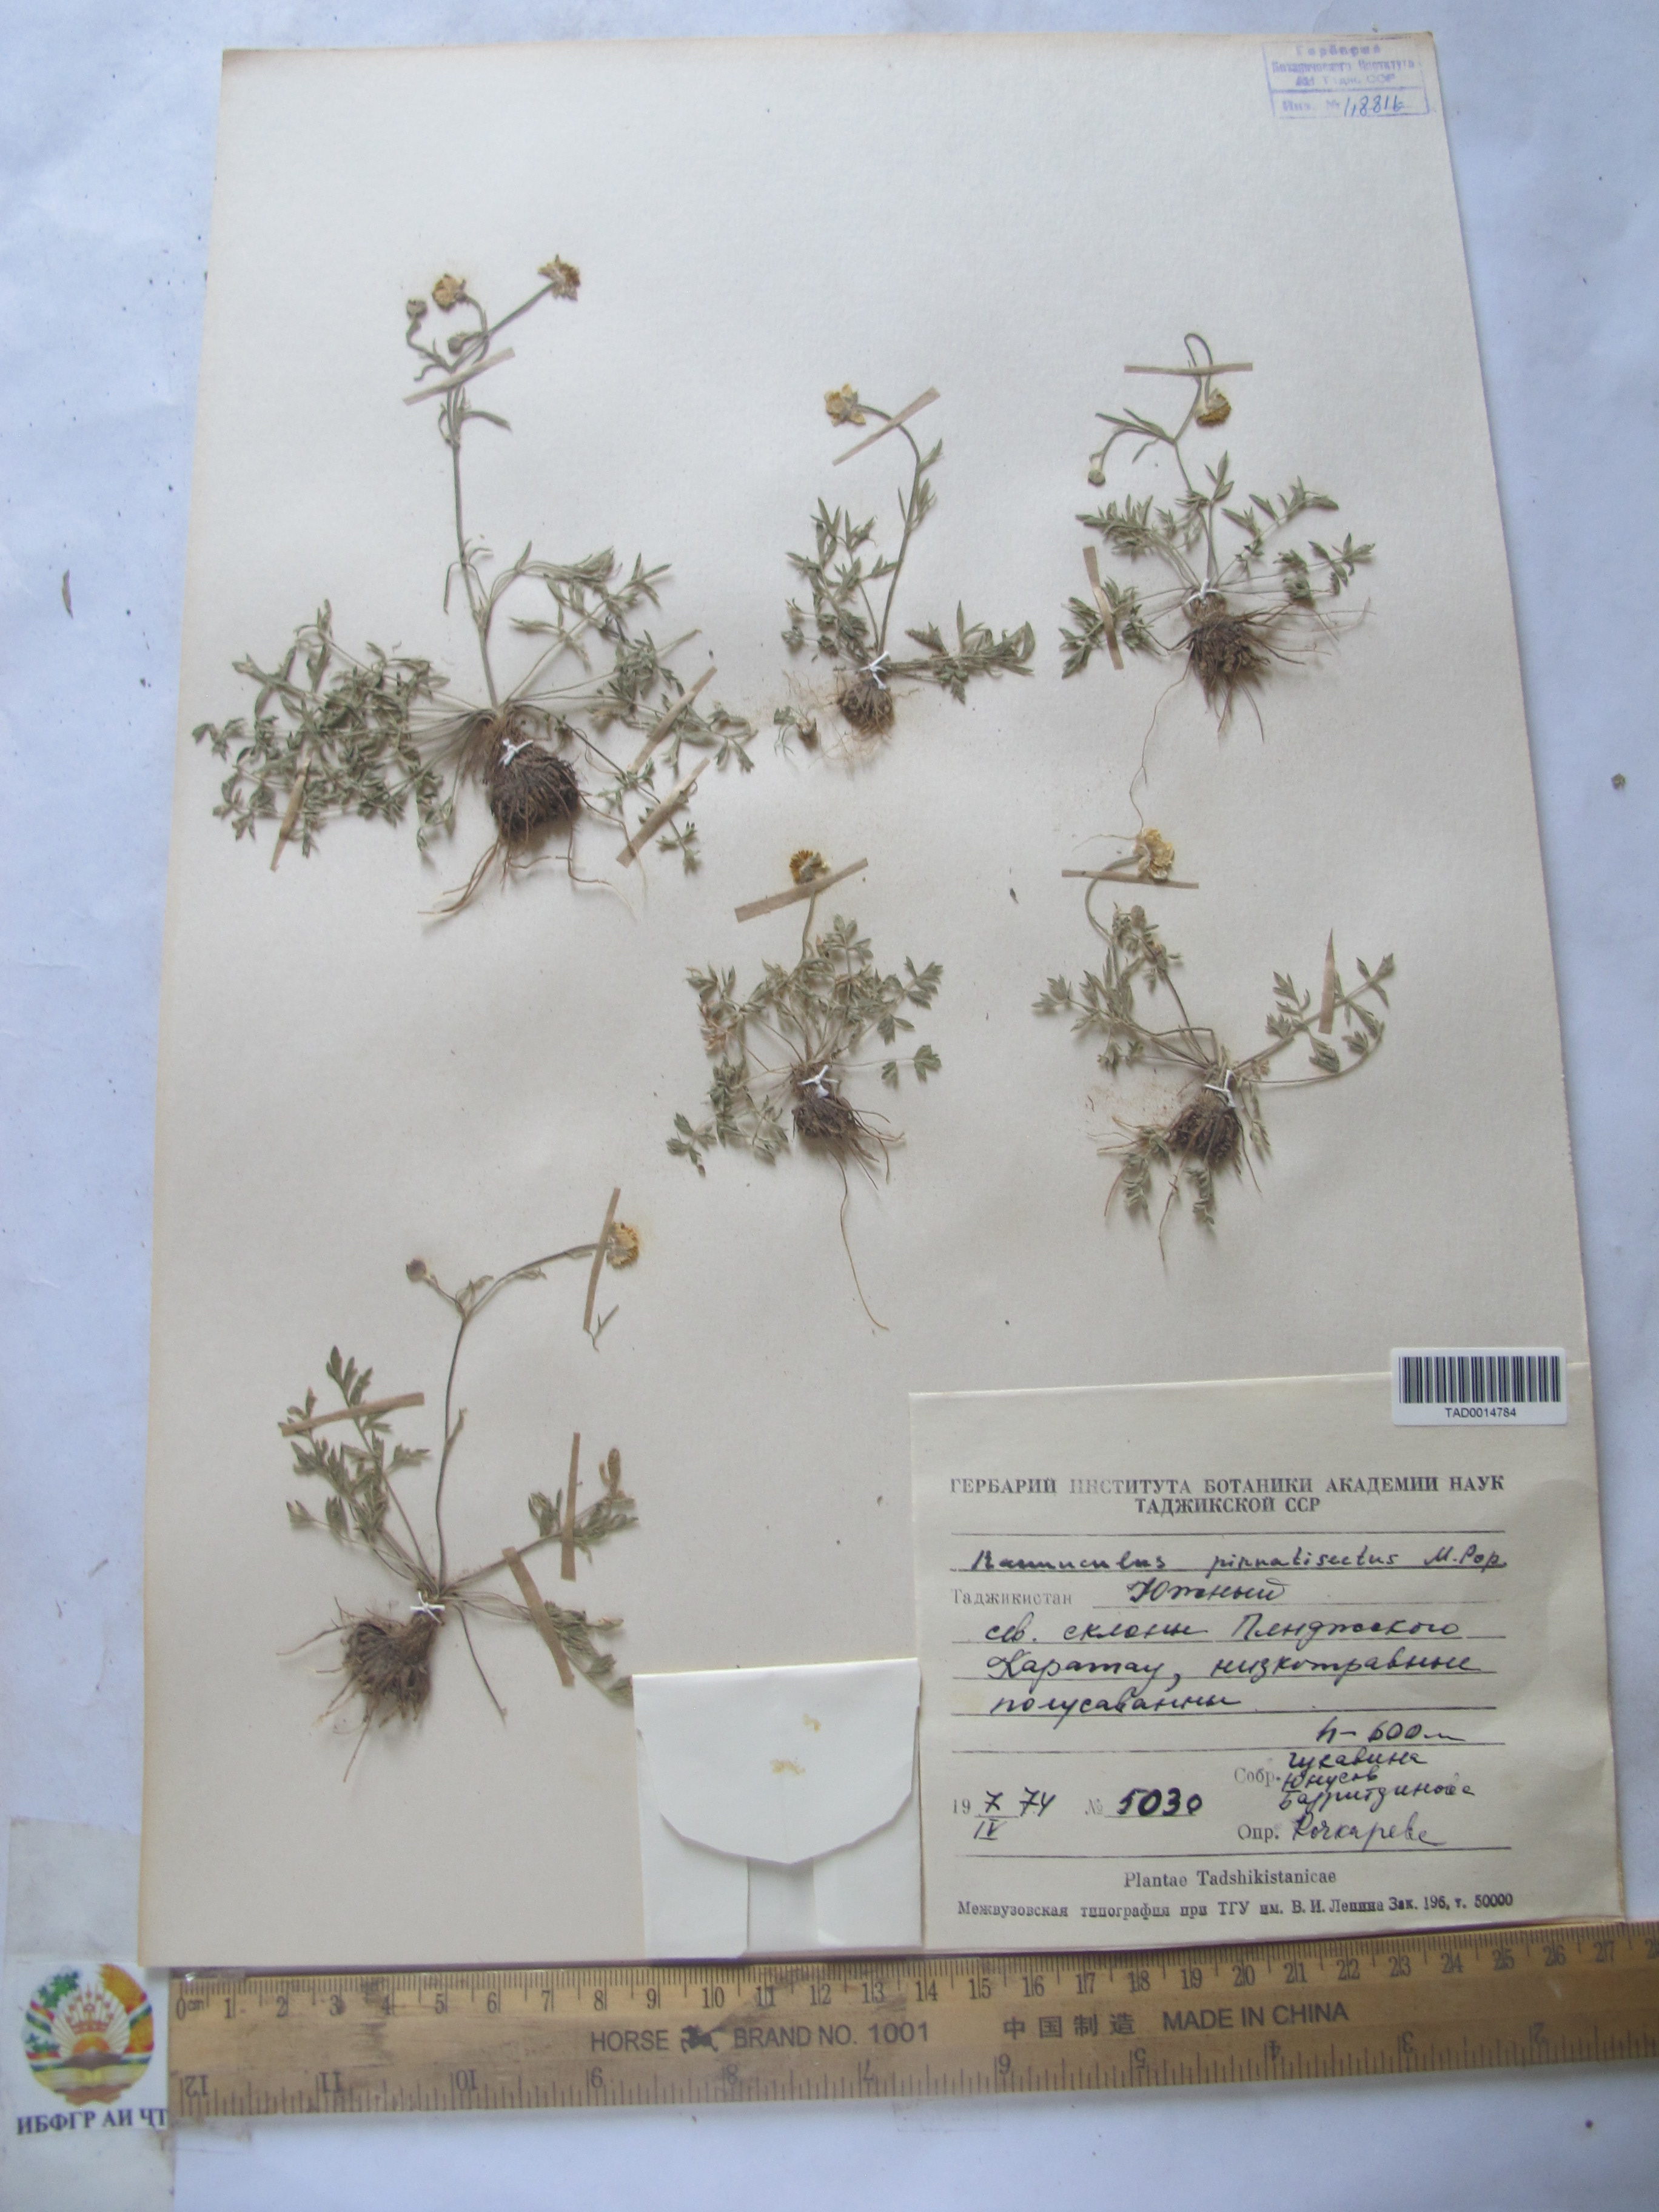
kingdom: Plantae
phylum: Tracheophyta
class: Magnoliopsida
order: Ranunculales
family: Ranunculaceae
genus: Ranunculus
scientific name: Ranunculus pinnatisectus
